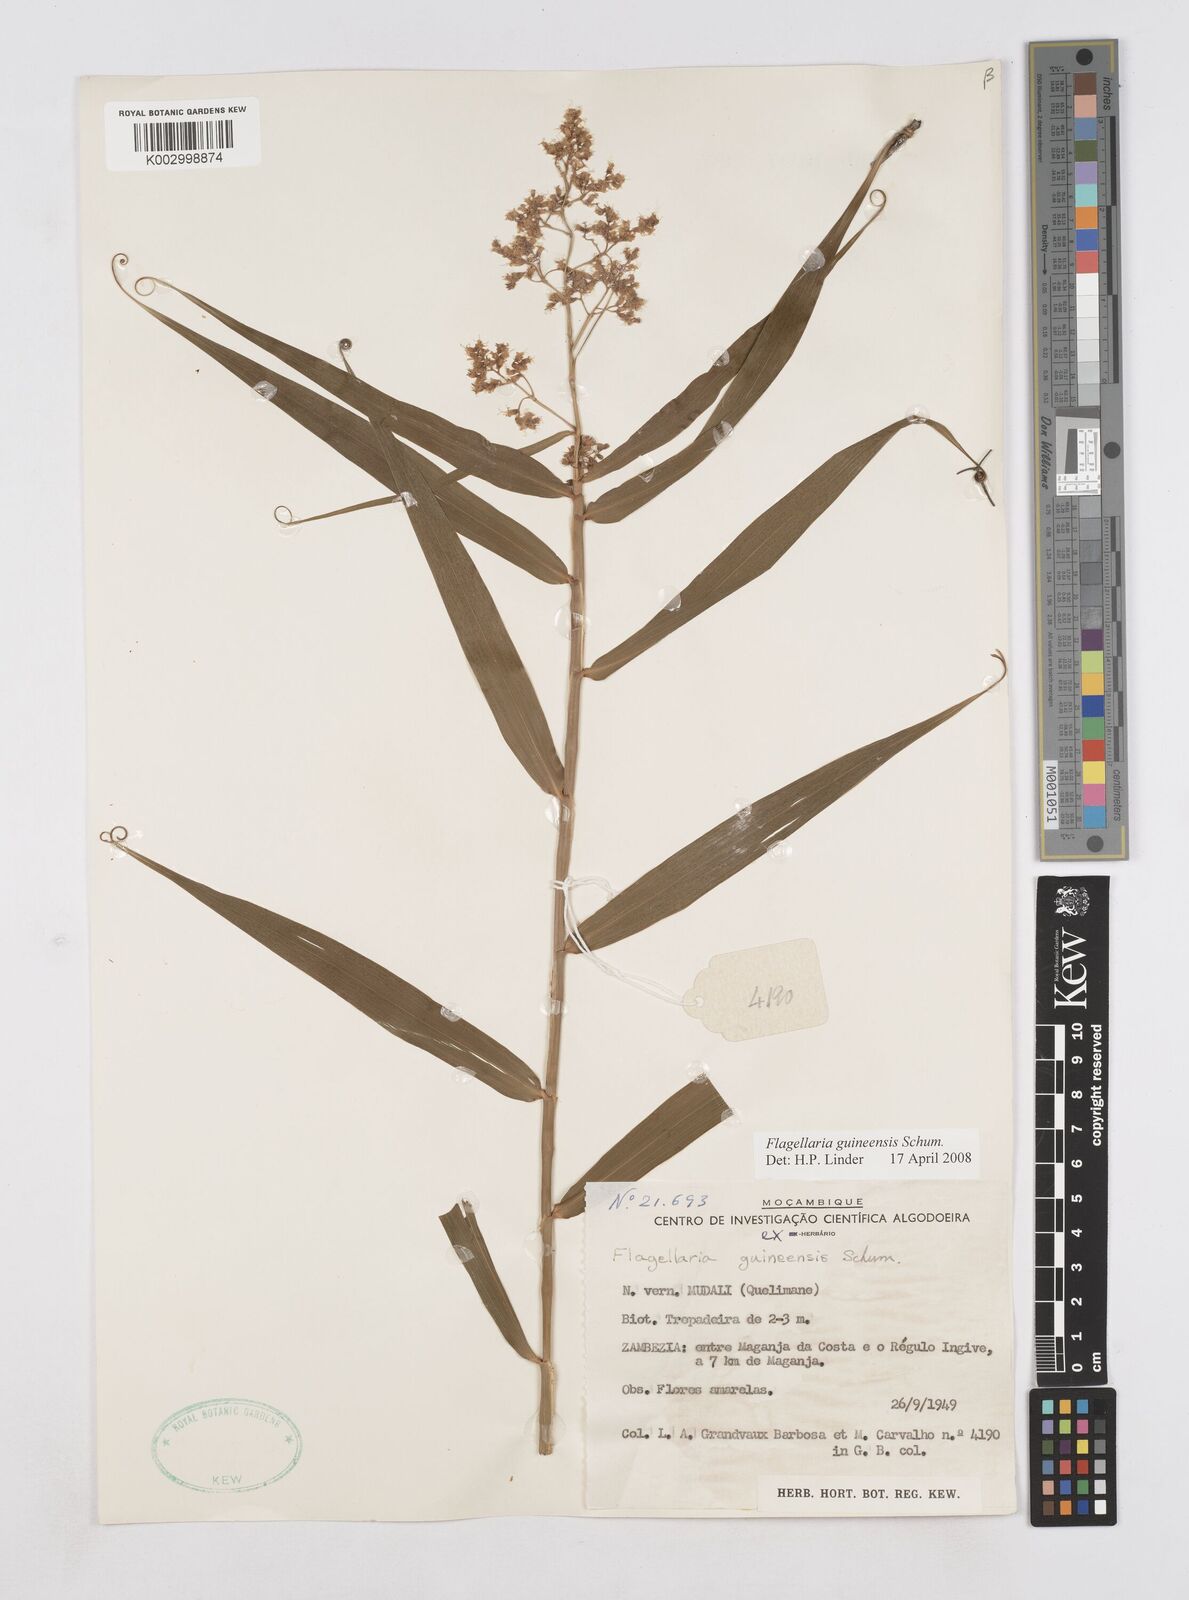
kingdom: Plantae
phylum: Tracheophyta
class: Liliopsida
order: Poales
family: Flagellariaceae
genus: Flagellaria
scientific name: Flagellaria guineensis
